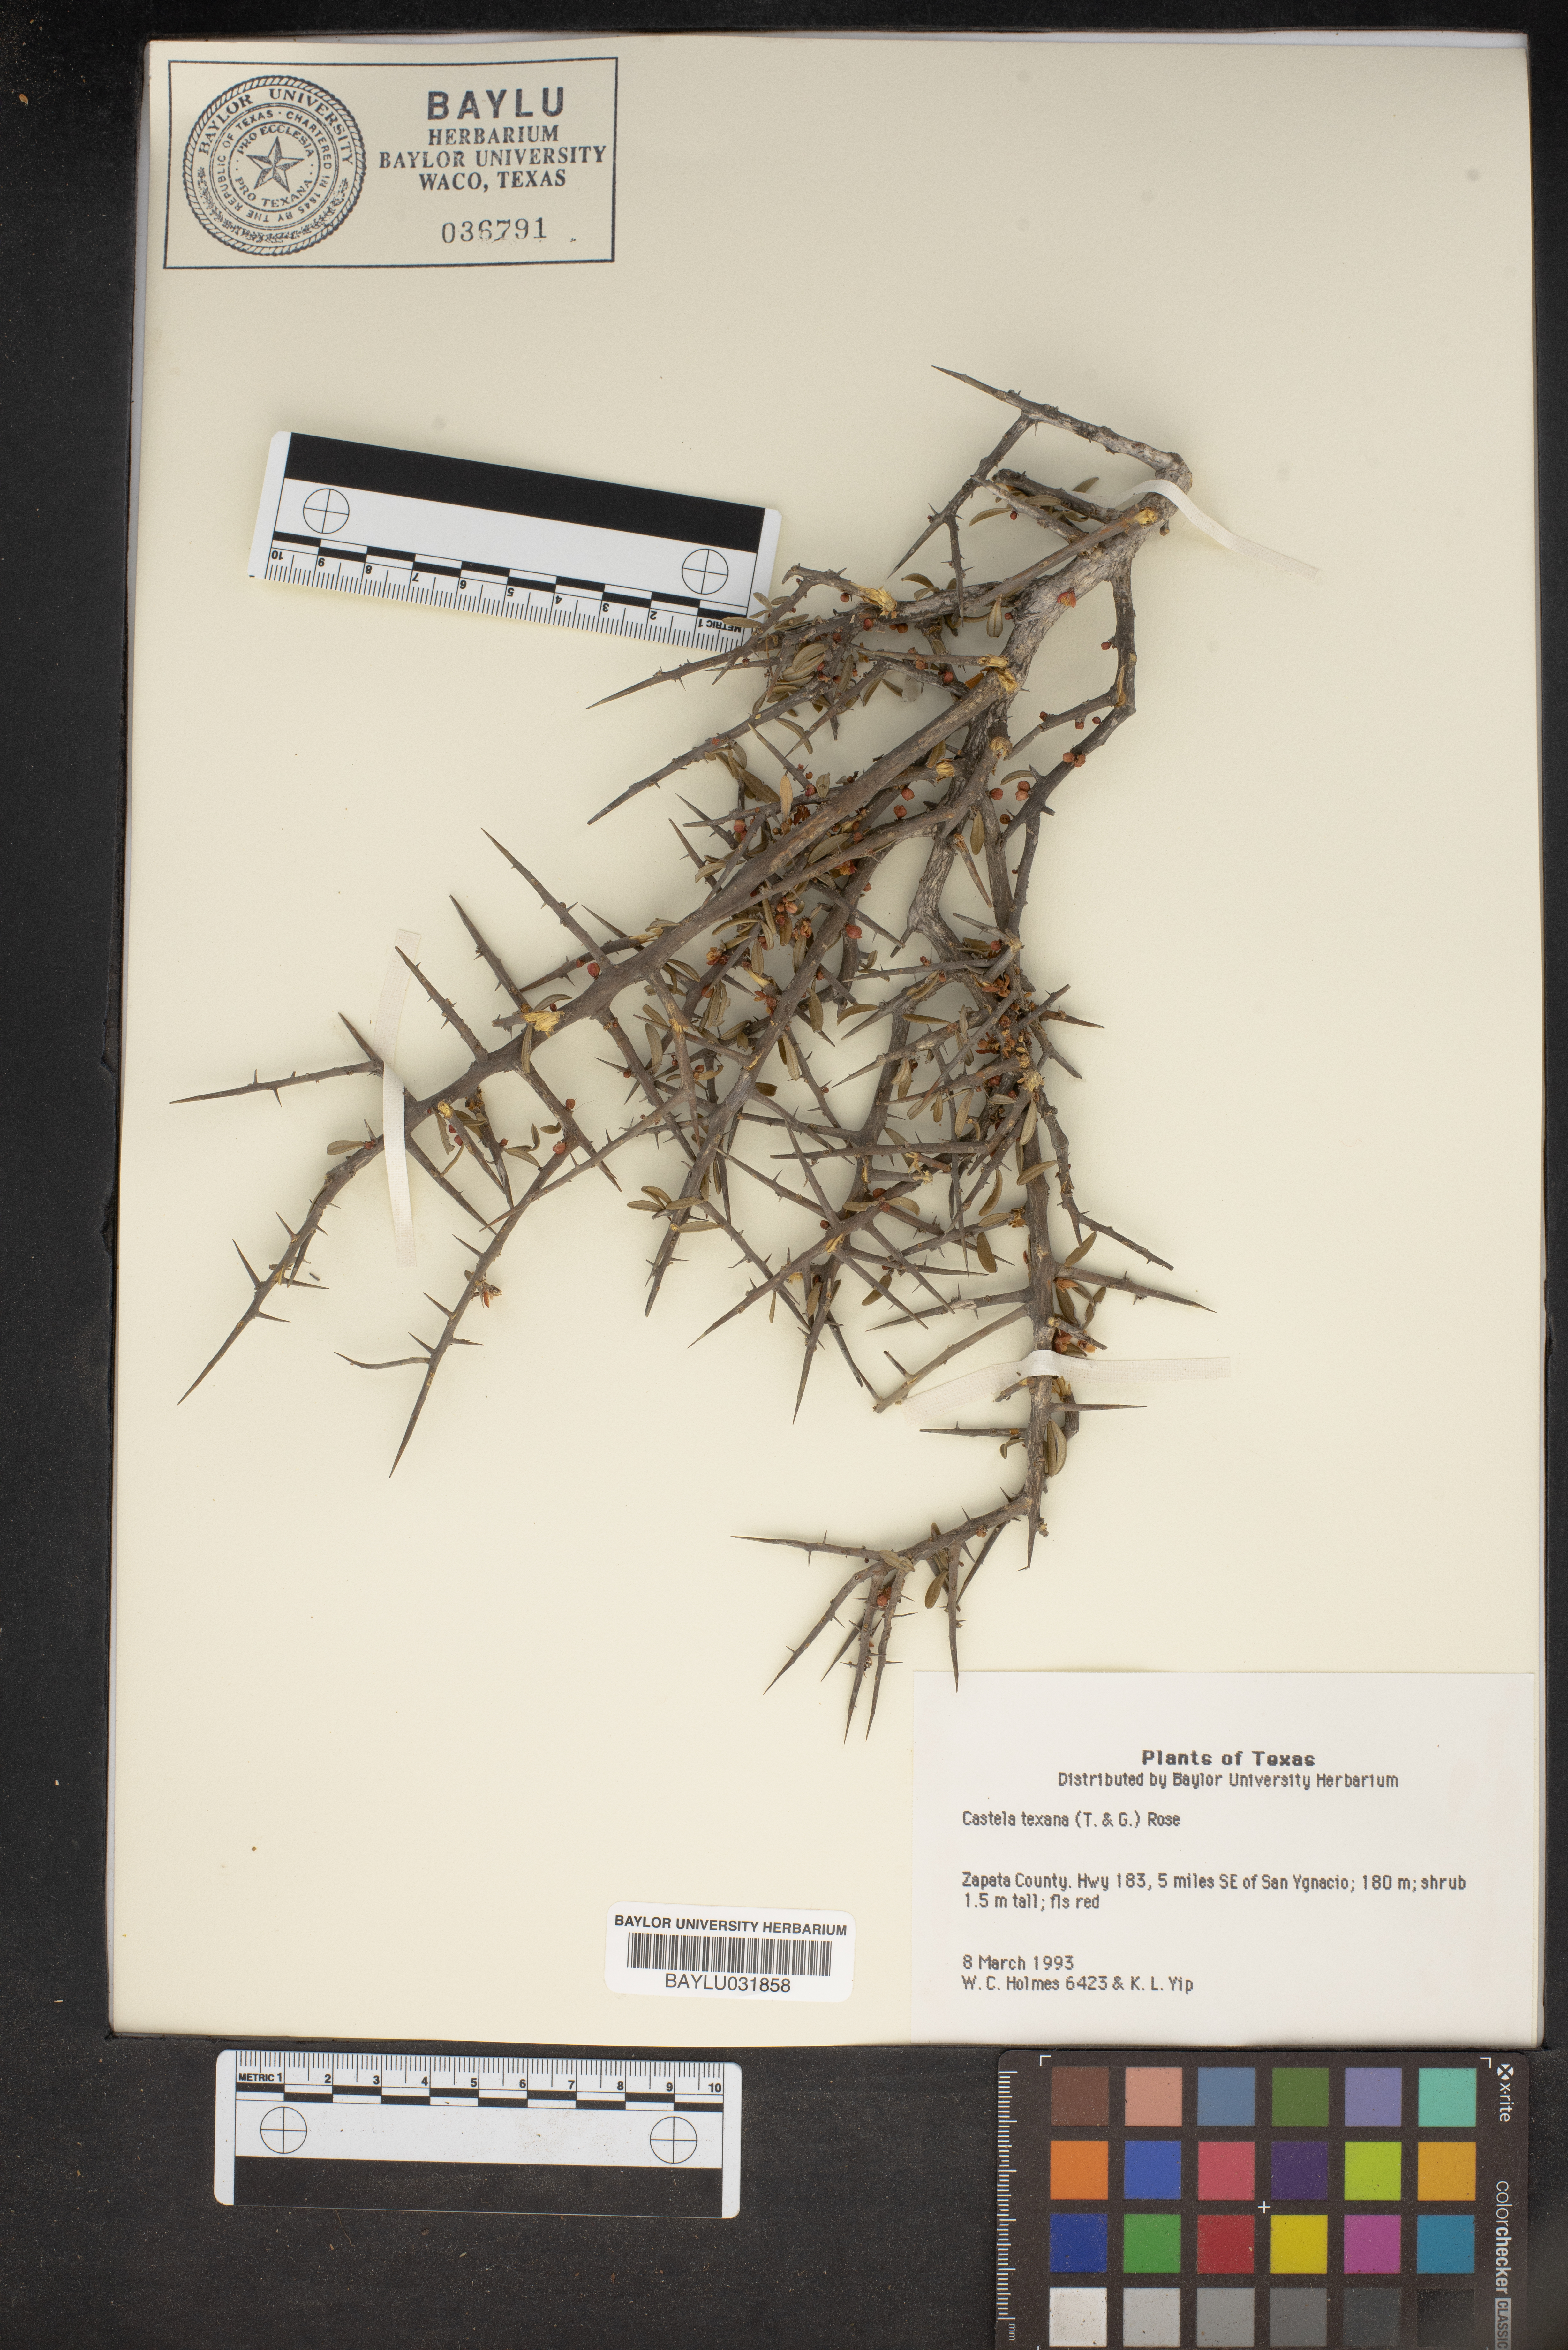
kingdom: Plantae
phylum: Tracheophyta
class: Magnoliopsida
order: Sapindales
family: Simaroubaceae
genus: Castela
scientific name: Castela tortuosa
